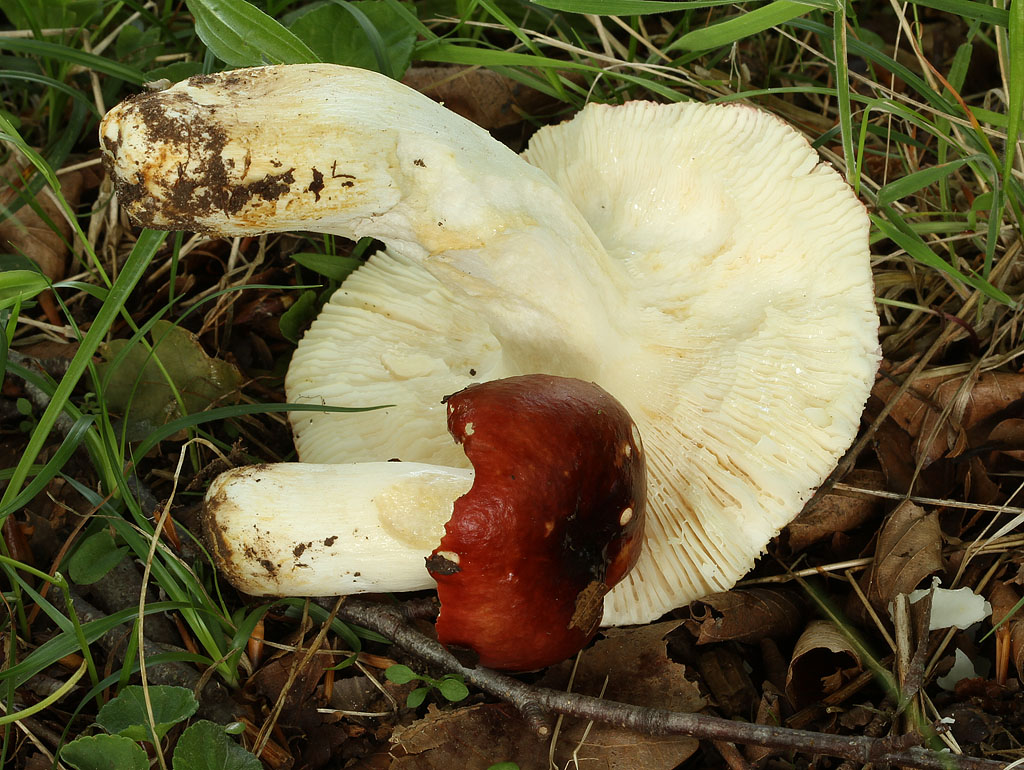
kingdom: Fungi
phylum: Basidiomycota
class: Agaricomycetes
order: Russulales
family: Russulaceae
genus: Russula
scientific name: Russula atropurpurea
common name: purpurbroget skørhat
